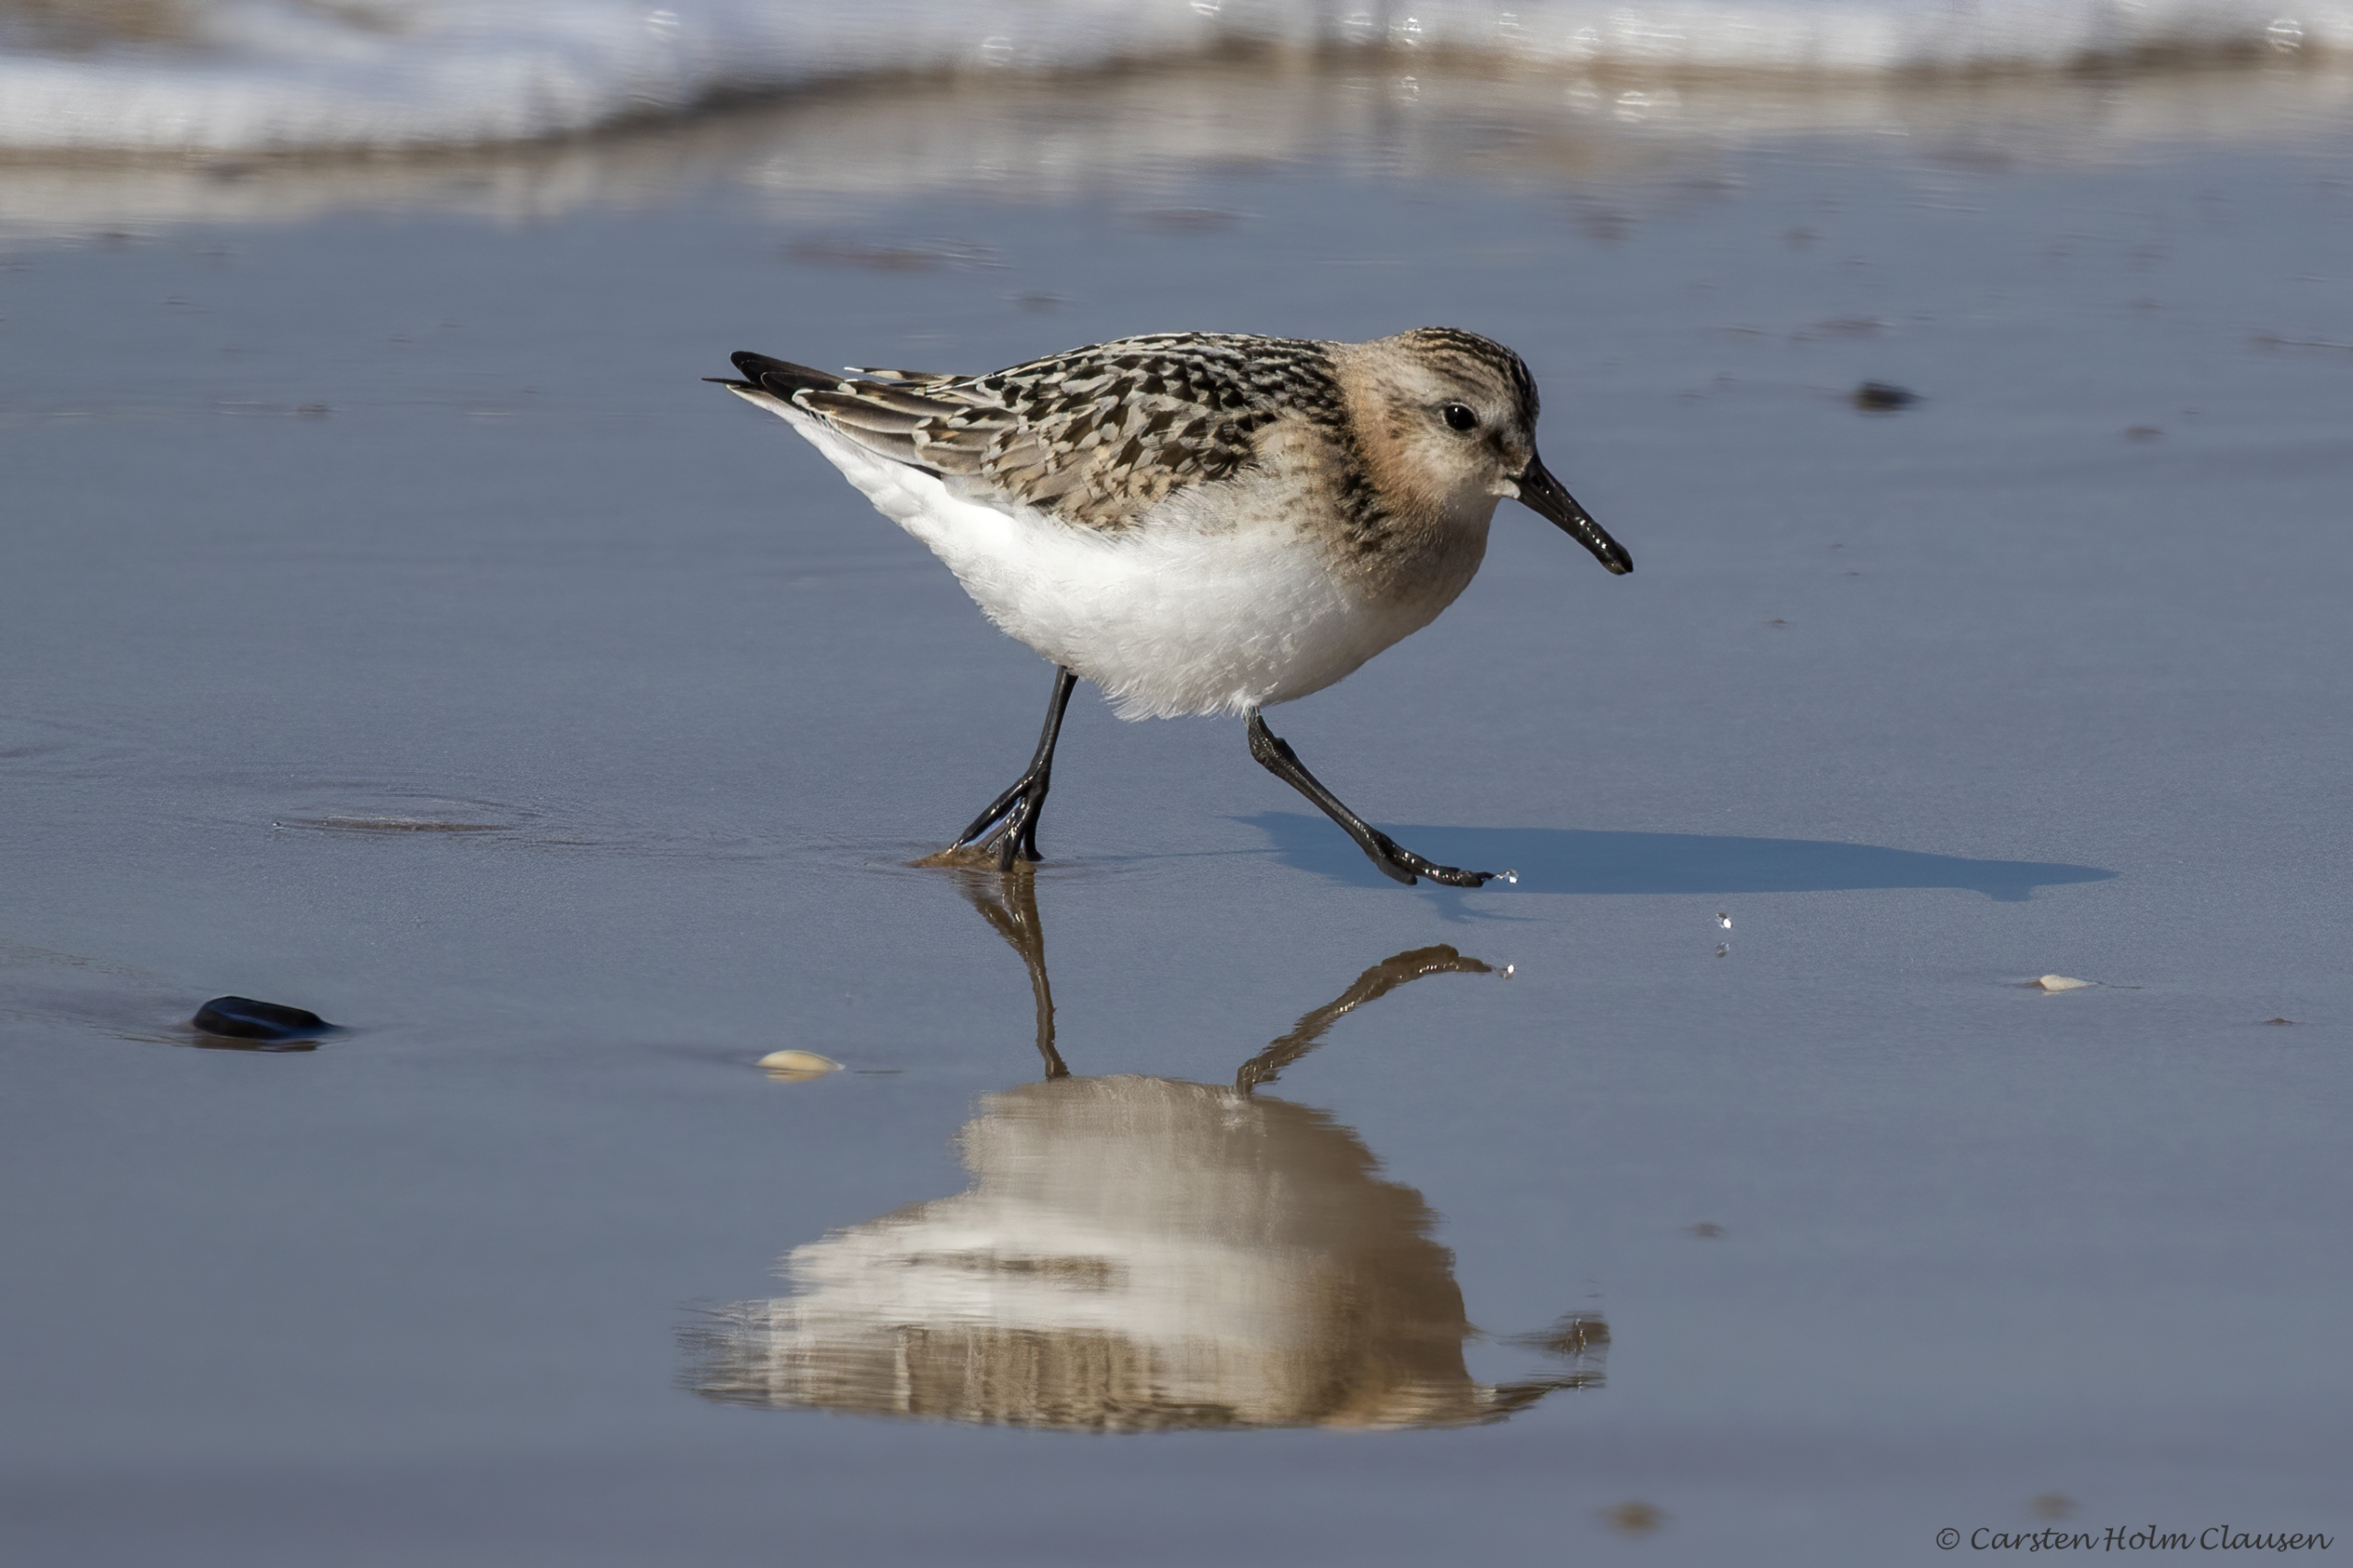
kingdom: Animalia
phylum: Chordata
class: Aves
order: Charadriiformes
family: Scolopacidae
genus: Calidris
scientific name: Calidris alba
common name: Sandløber
